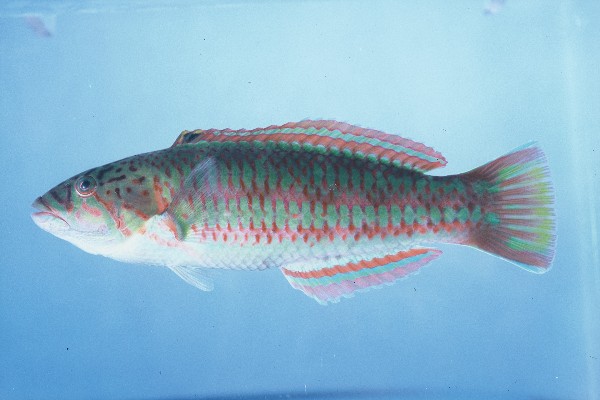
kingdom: Animalia
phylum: Chordata
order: Perciformes
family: Labridae
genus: Thalassoma
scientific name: Thalassoma purpureum
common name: Parrotfish
